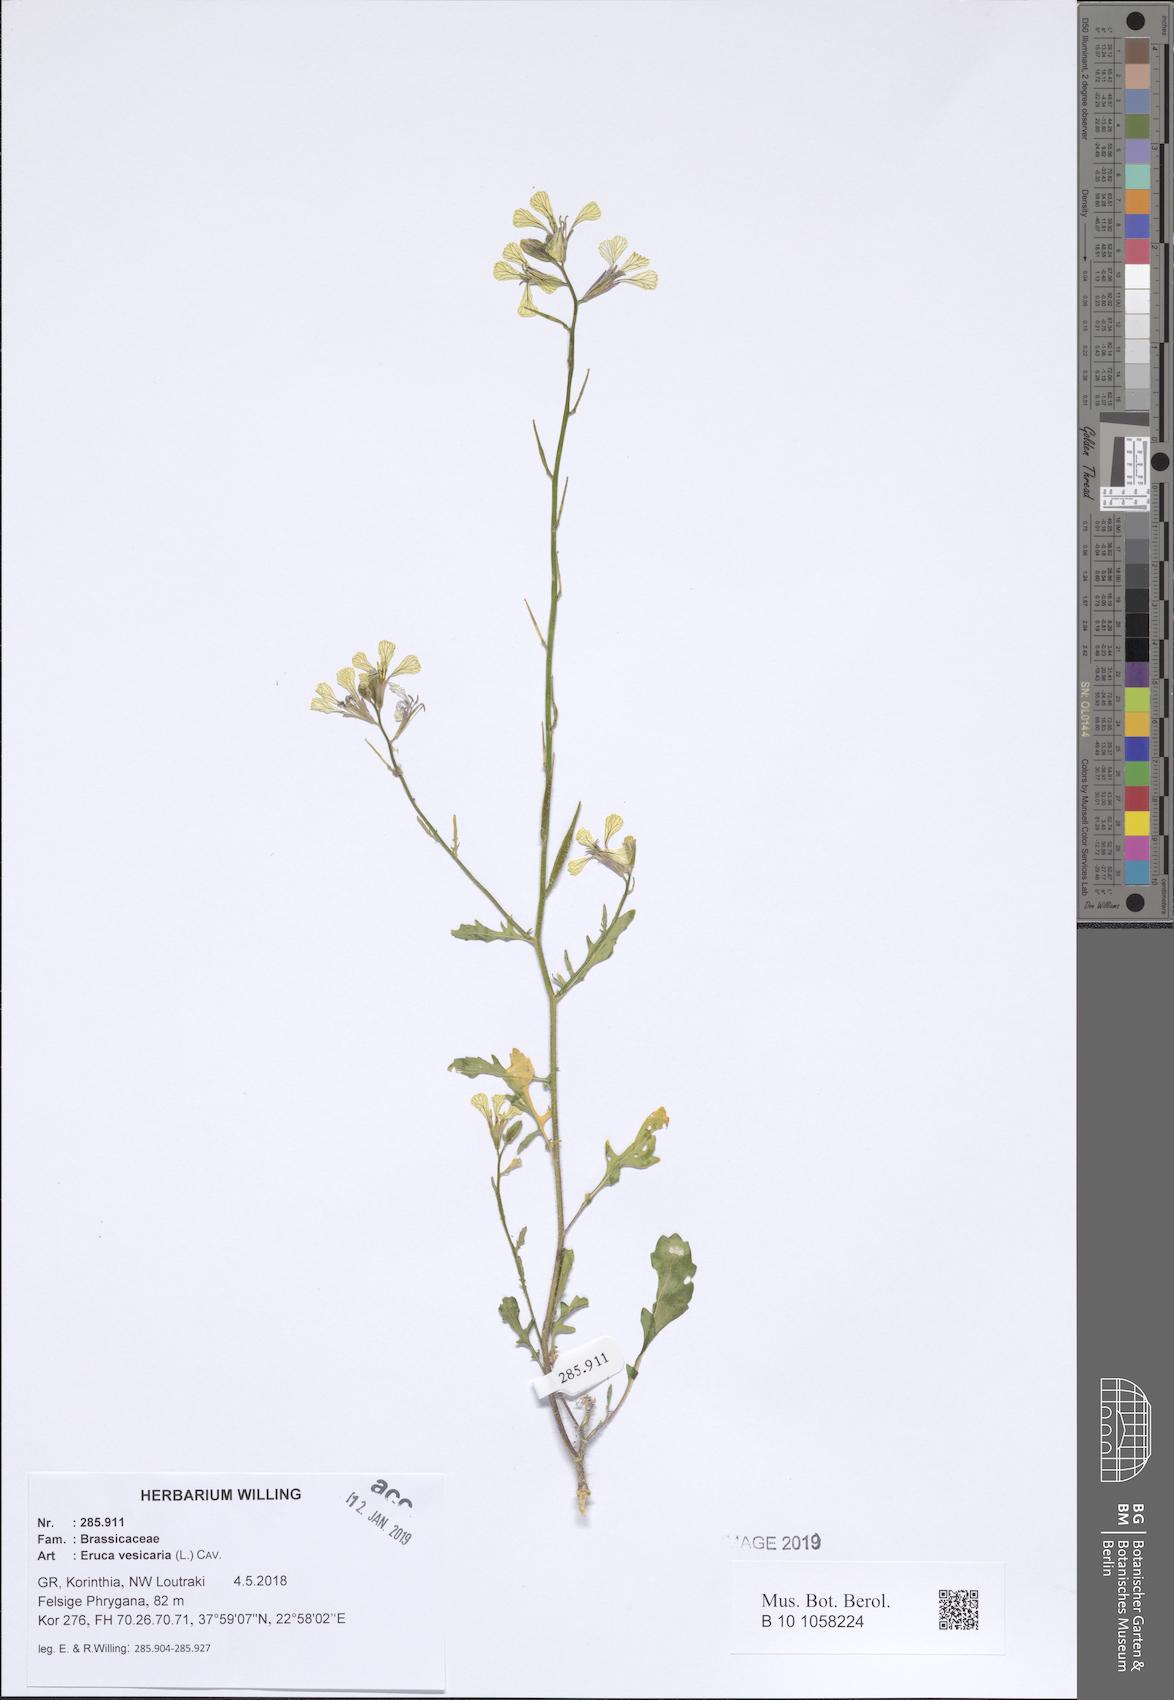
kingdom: Plantae
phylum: Tracheophyta
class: Magnoliopsida
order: Brassicales
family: Brassicaceae
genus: Eruca
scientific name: Eruca vesicaria
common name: Garden rocket
